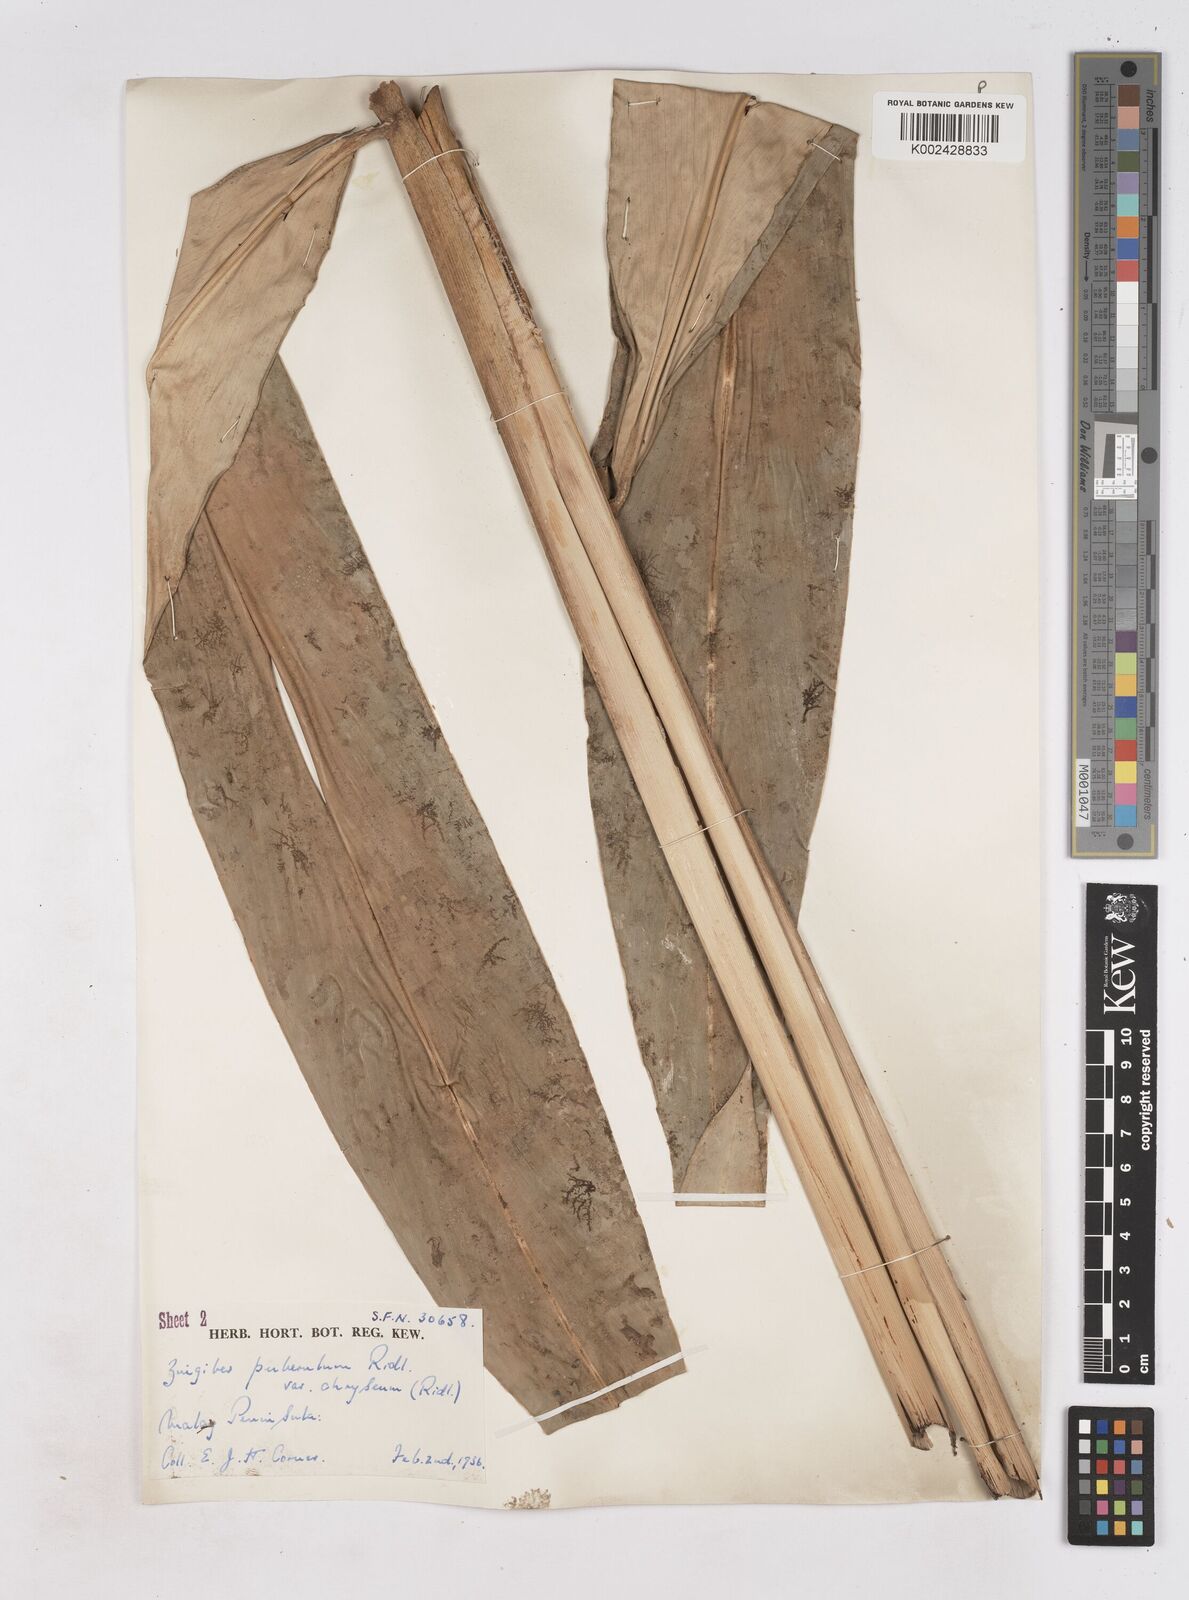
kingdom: Plantae
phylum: Tracheophyta
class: Liliopsida
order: Zingiberales
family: Zingiberaceae
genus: Zingiber
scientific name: Zingiber puberulum
